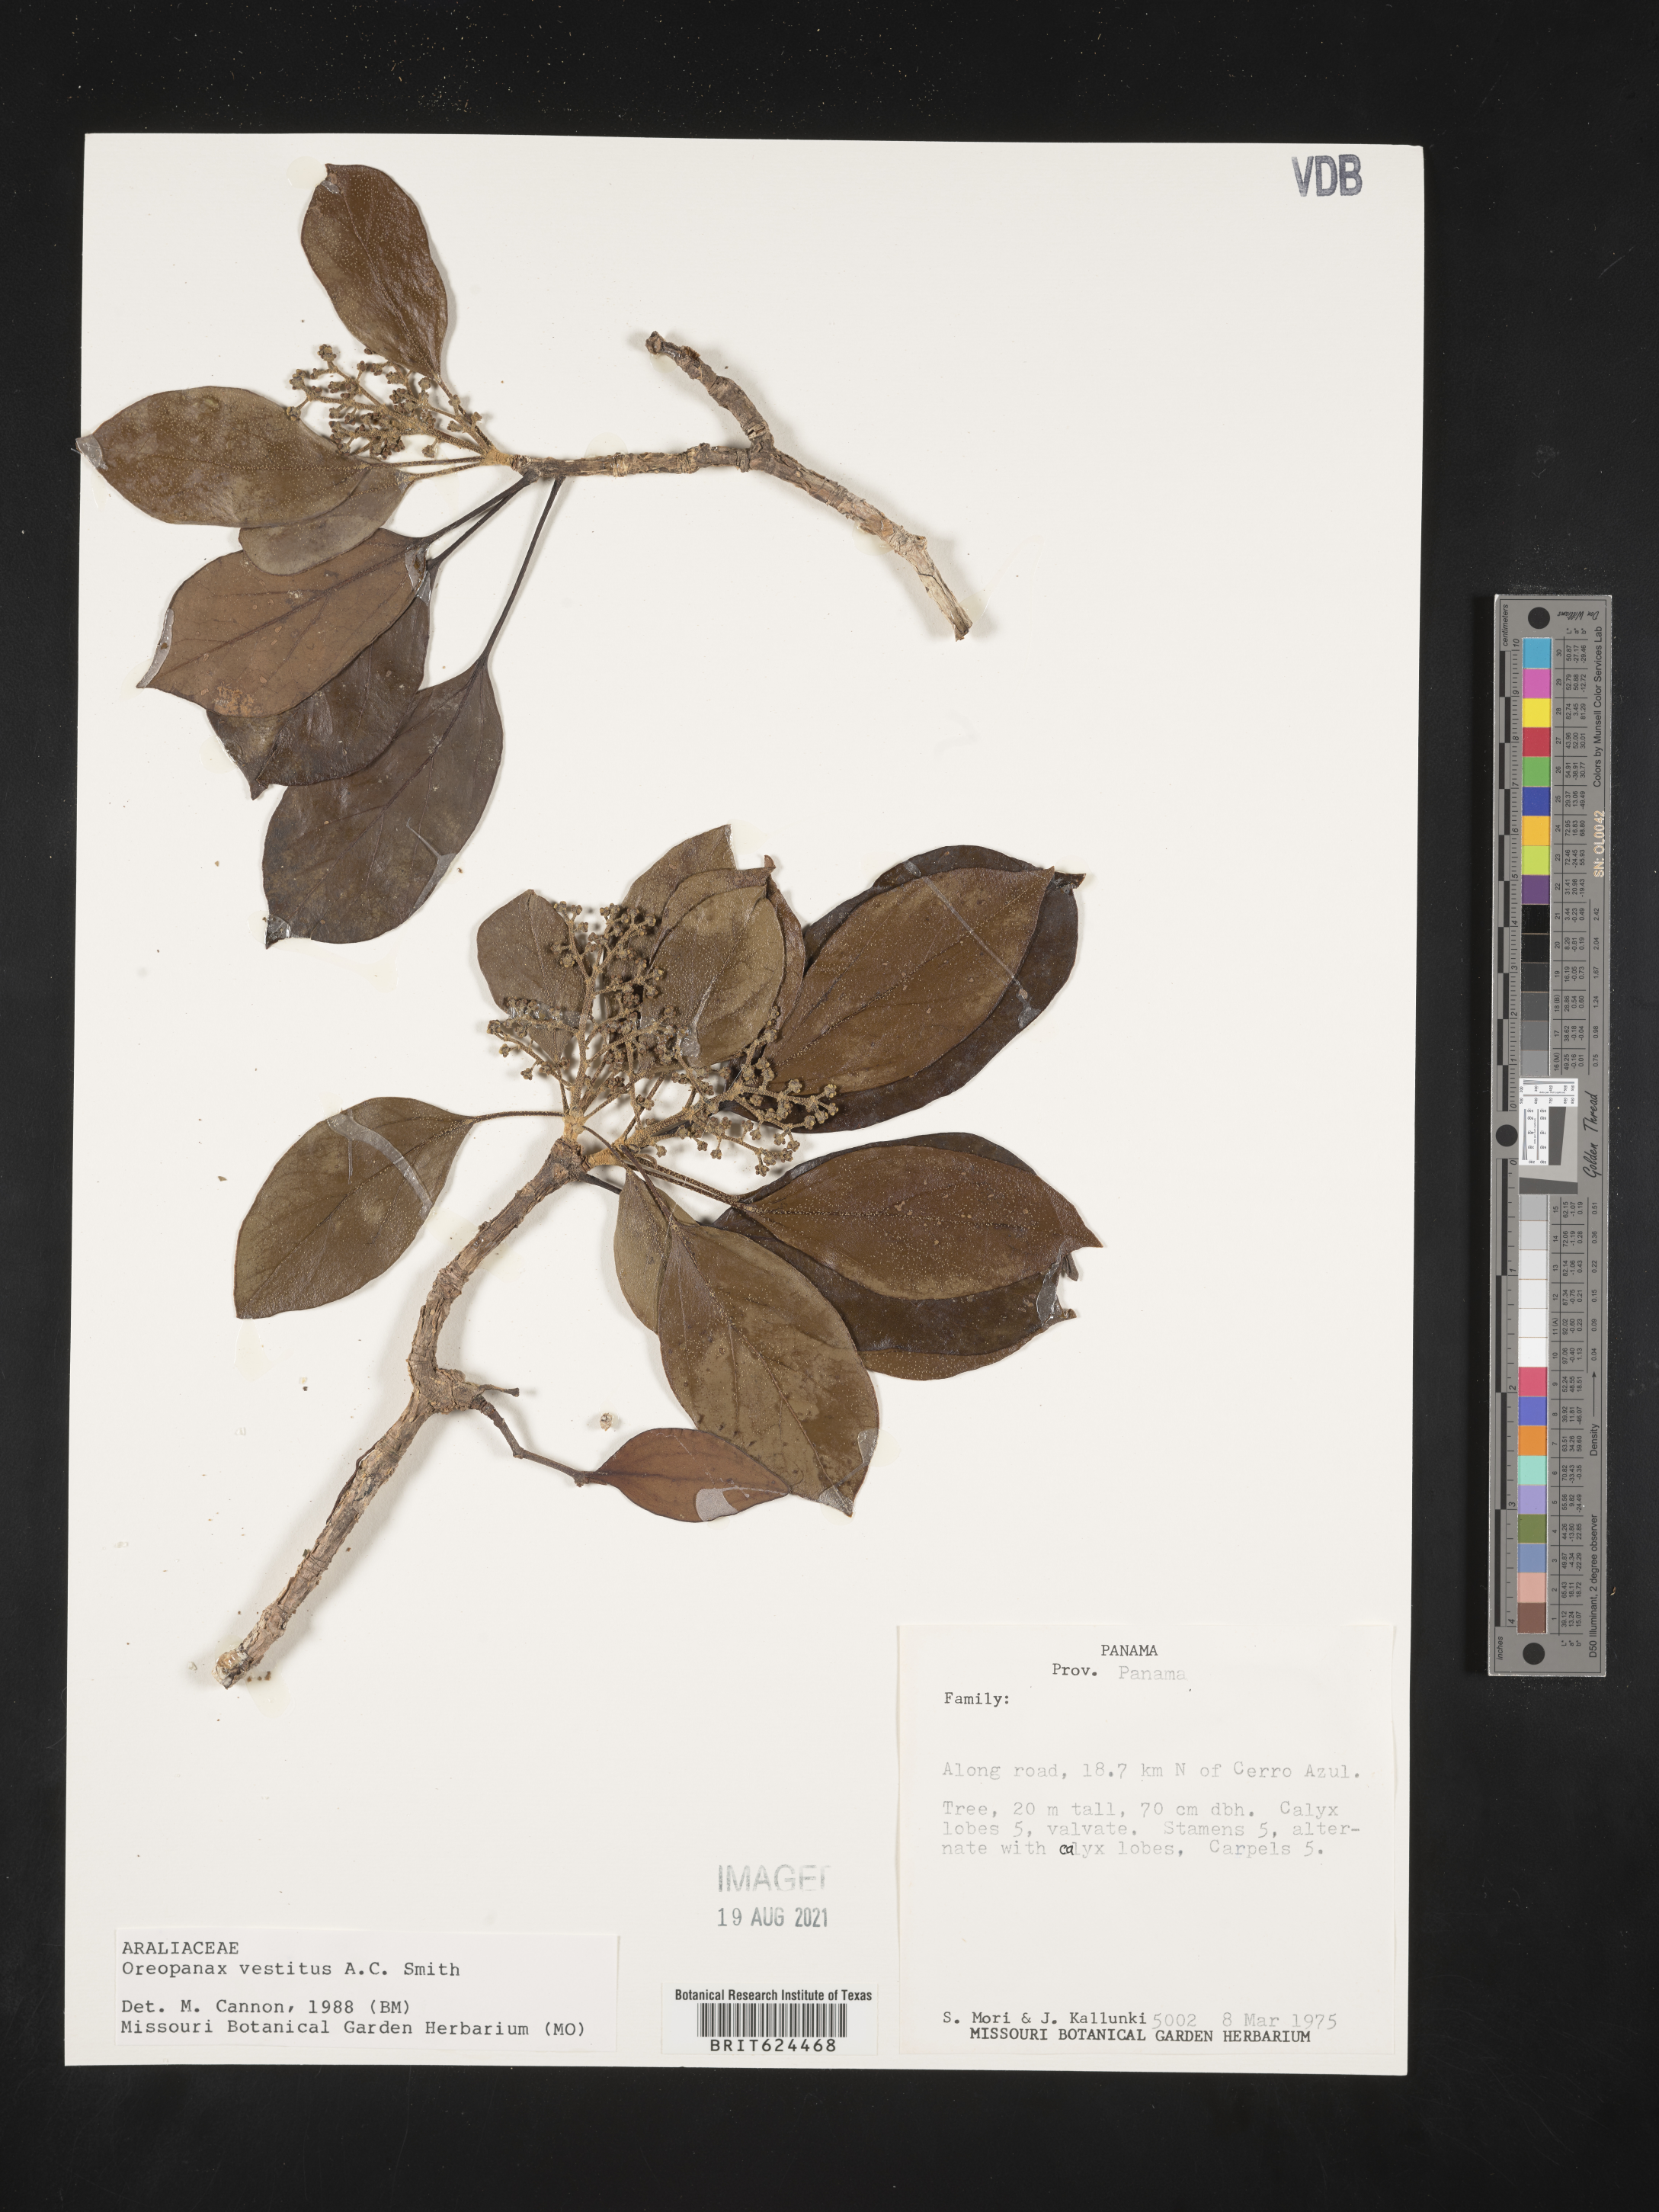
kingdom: Plantae
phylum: Tracheophyta
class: Magnoliopsida
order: Apiales
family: Araliaceae
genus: Oreopanax
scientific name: Oreopanax oerstedianus
